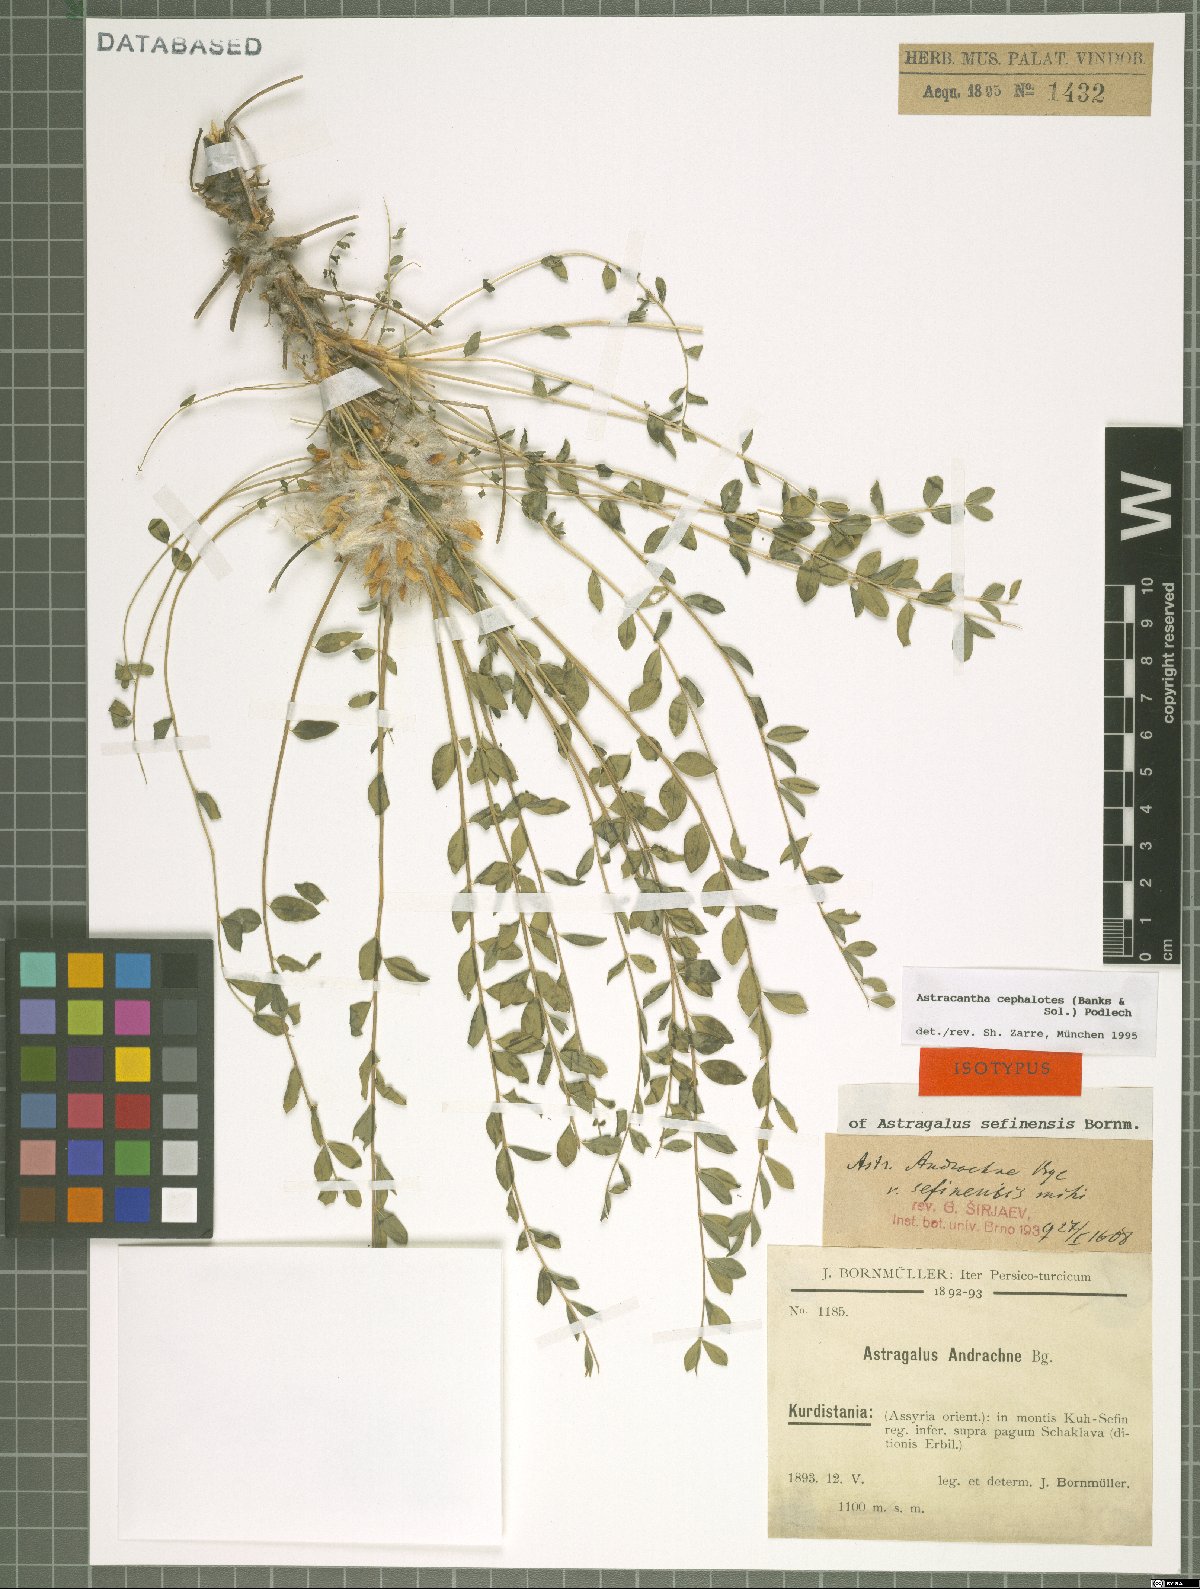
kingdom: Plantae
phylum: Tracheophyta
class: Magnoliopsida
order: Fabales
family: Fabaceae
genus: Astragalus
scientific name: Astragalus cephalotes
